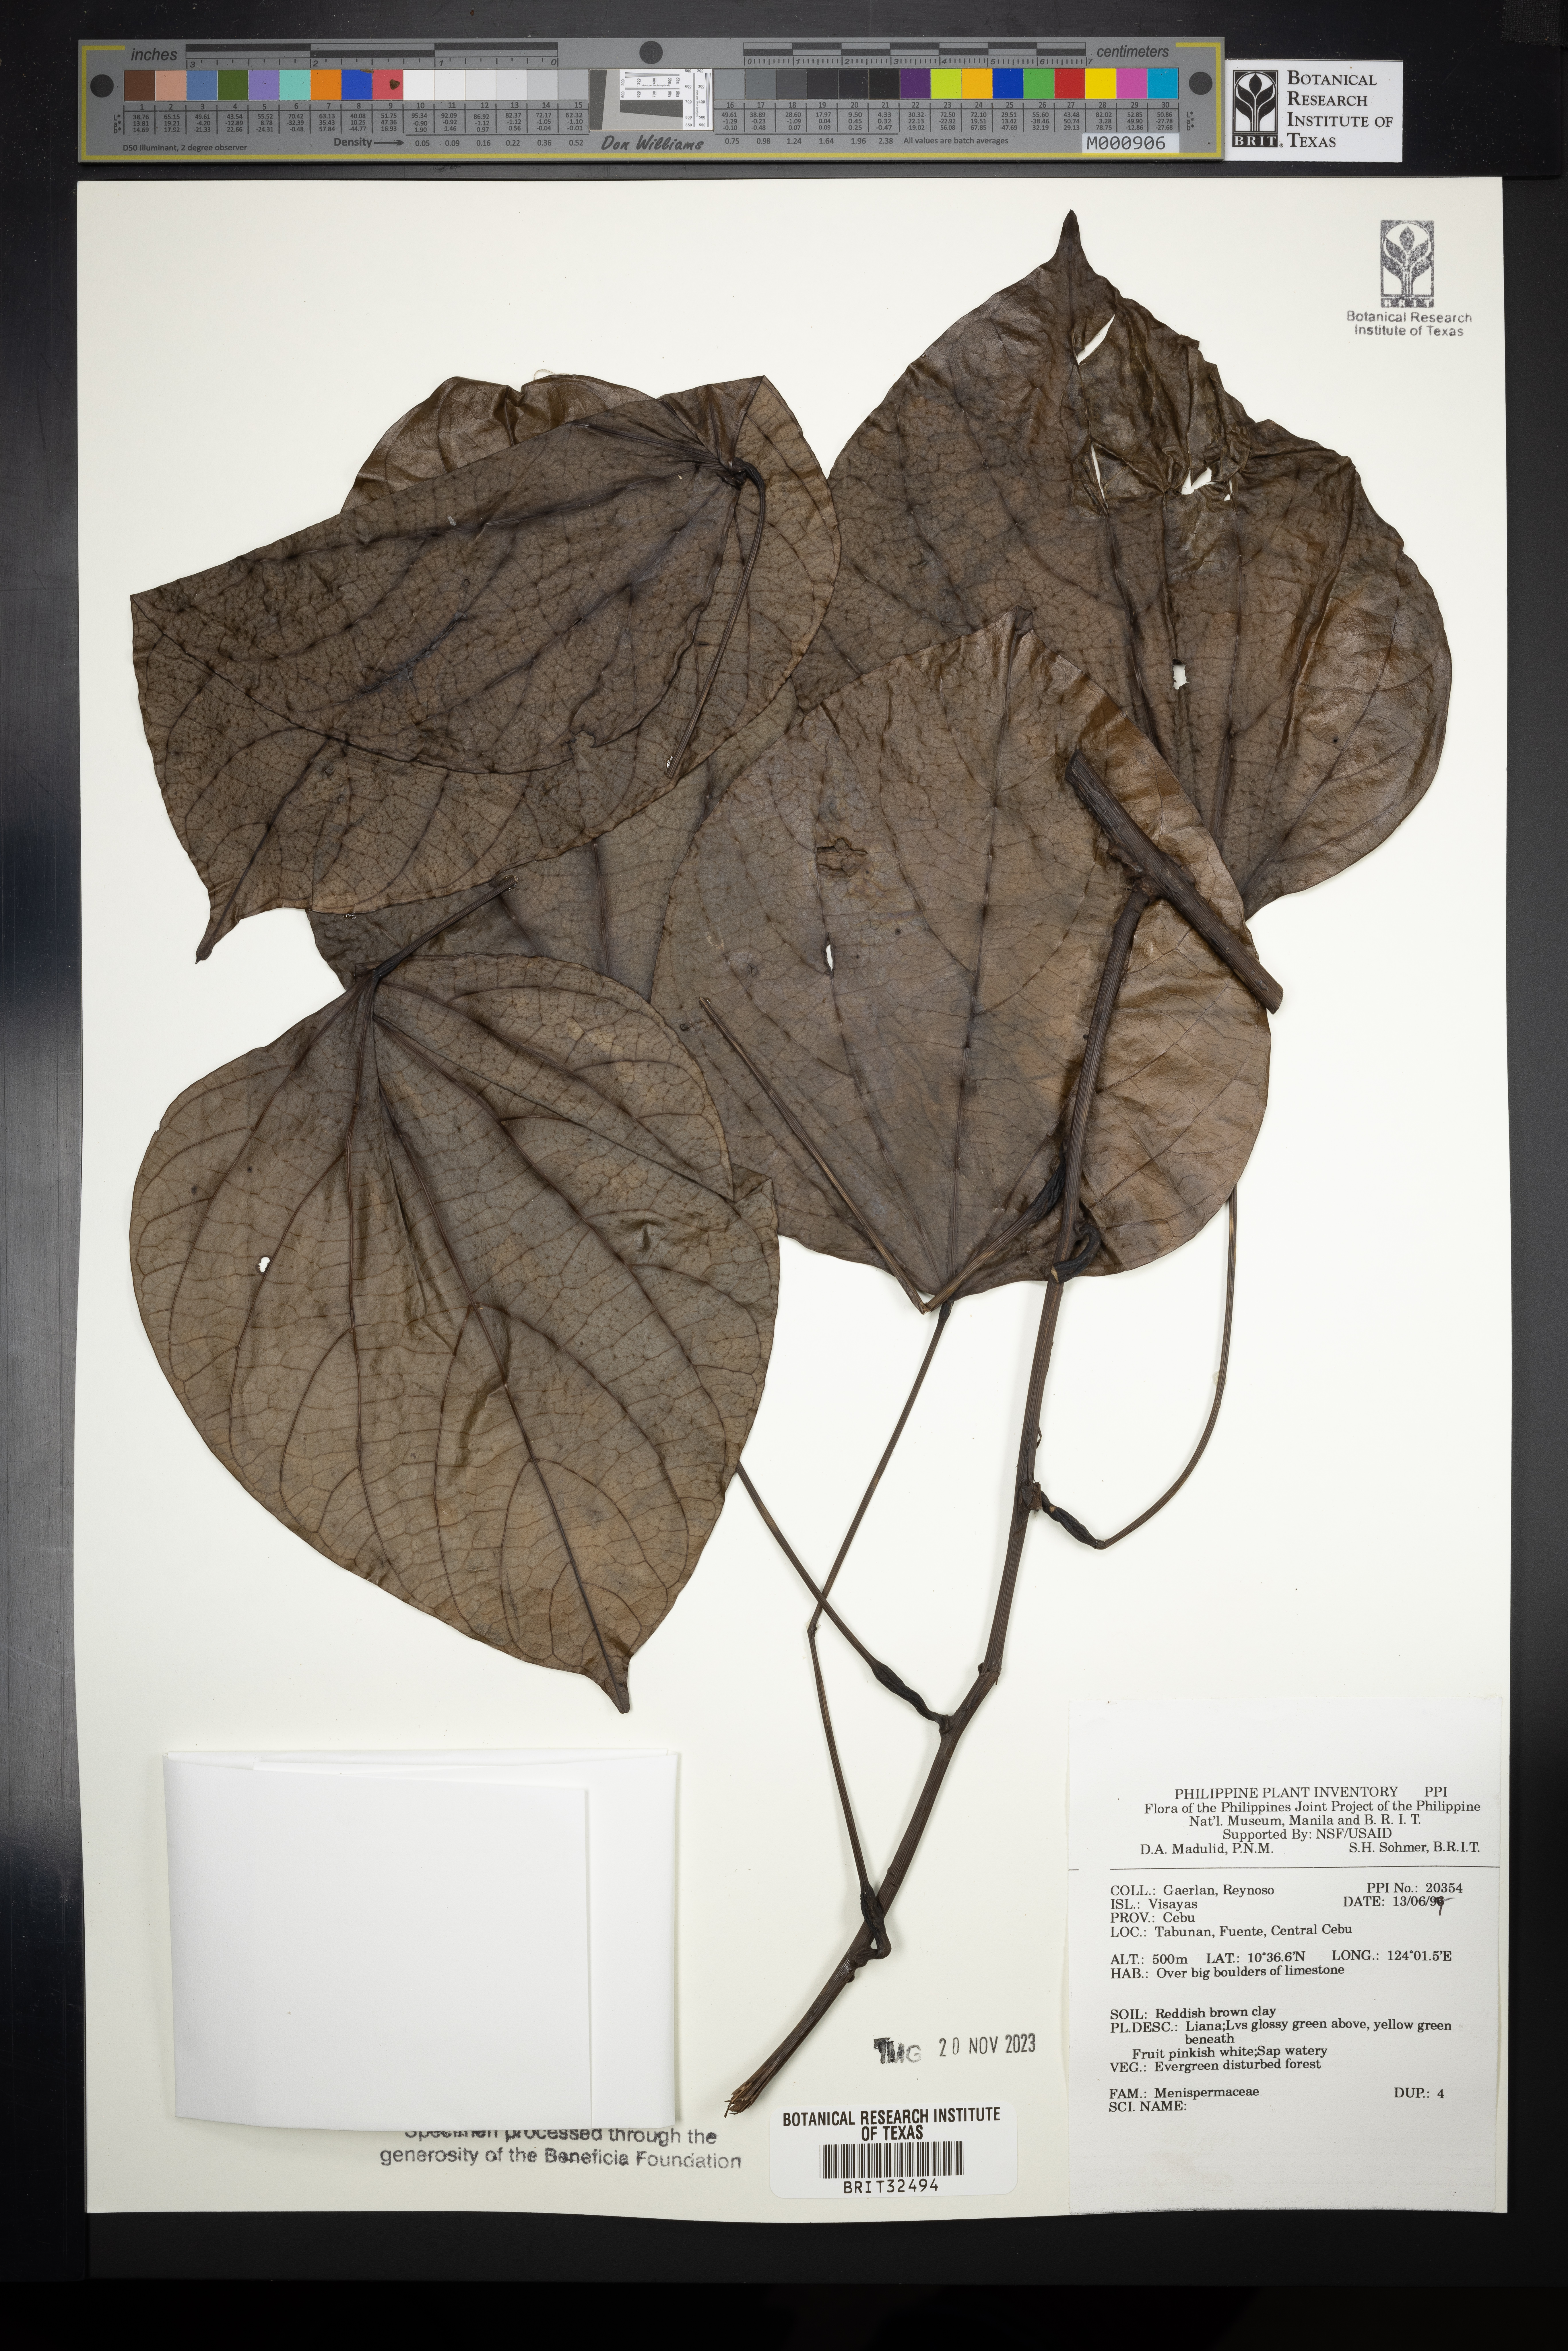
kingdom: Plantae
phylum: Tracheophyta
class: Magnoliopsida
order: Ranunculales
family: Menispermaceae
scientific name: Menispermaceae
